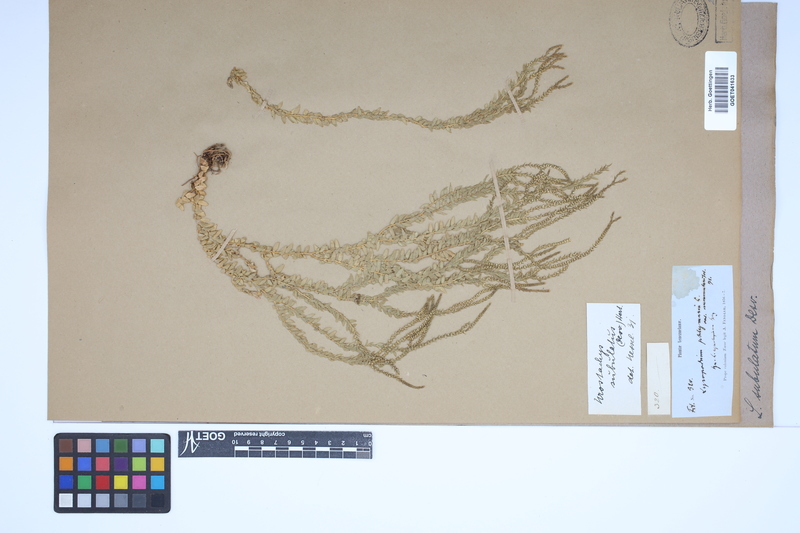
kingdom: Plantae
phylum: Tracheophyta
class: Lycopodiopsida
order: Lycopodiales
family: Lycopodiaceae
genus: Phlegmariurus
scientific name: Phlegmariurus subulatus
